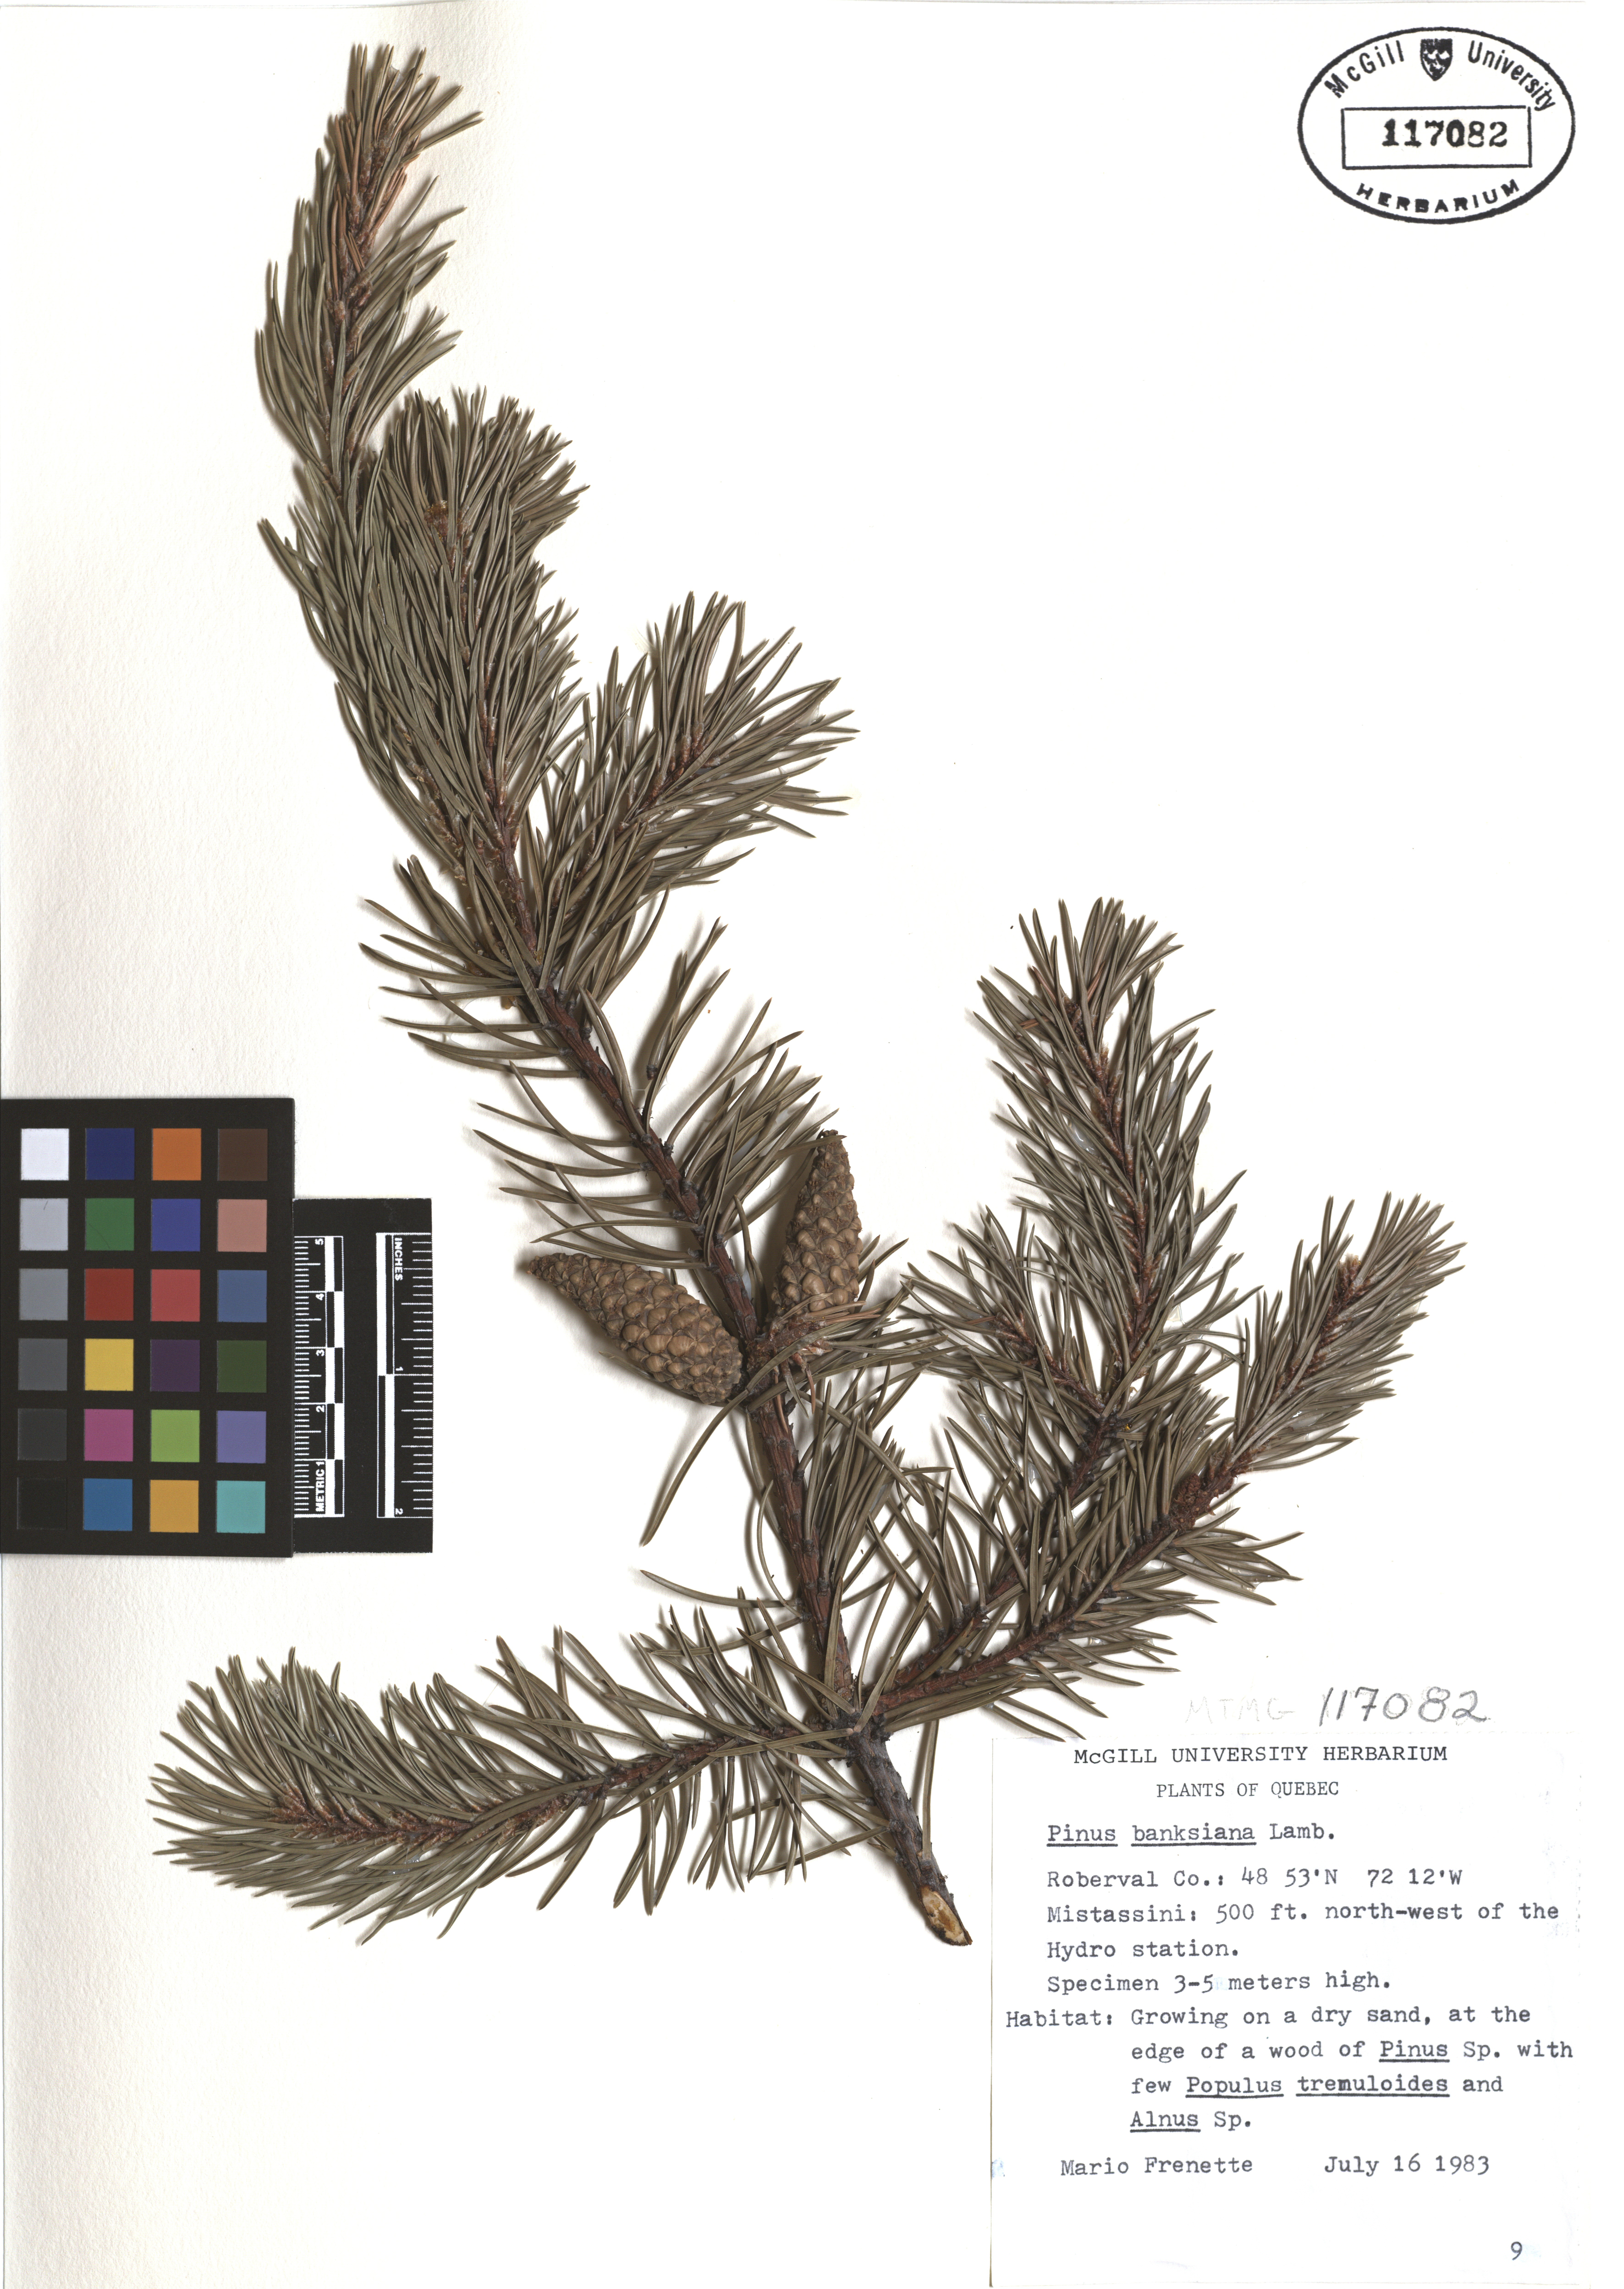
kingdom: Plantae
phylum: Tracheophyta
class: Pinopsida
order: Pinales
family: Pinaceae
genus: Pinus
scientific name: Pinus banksiana
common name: Jack pine
